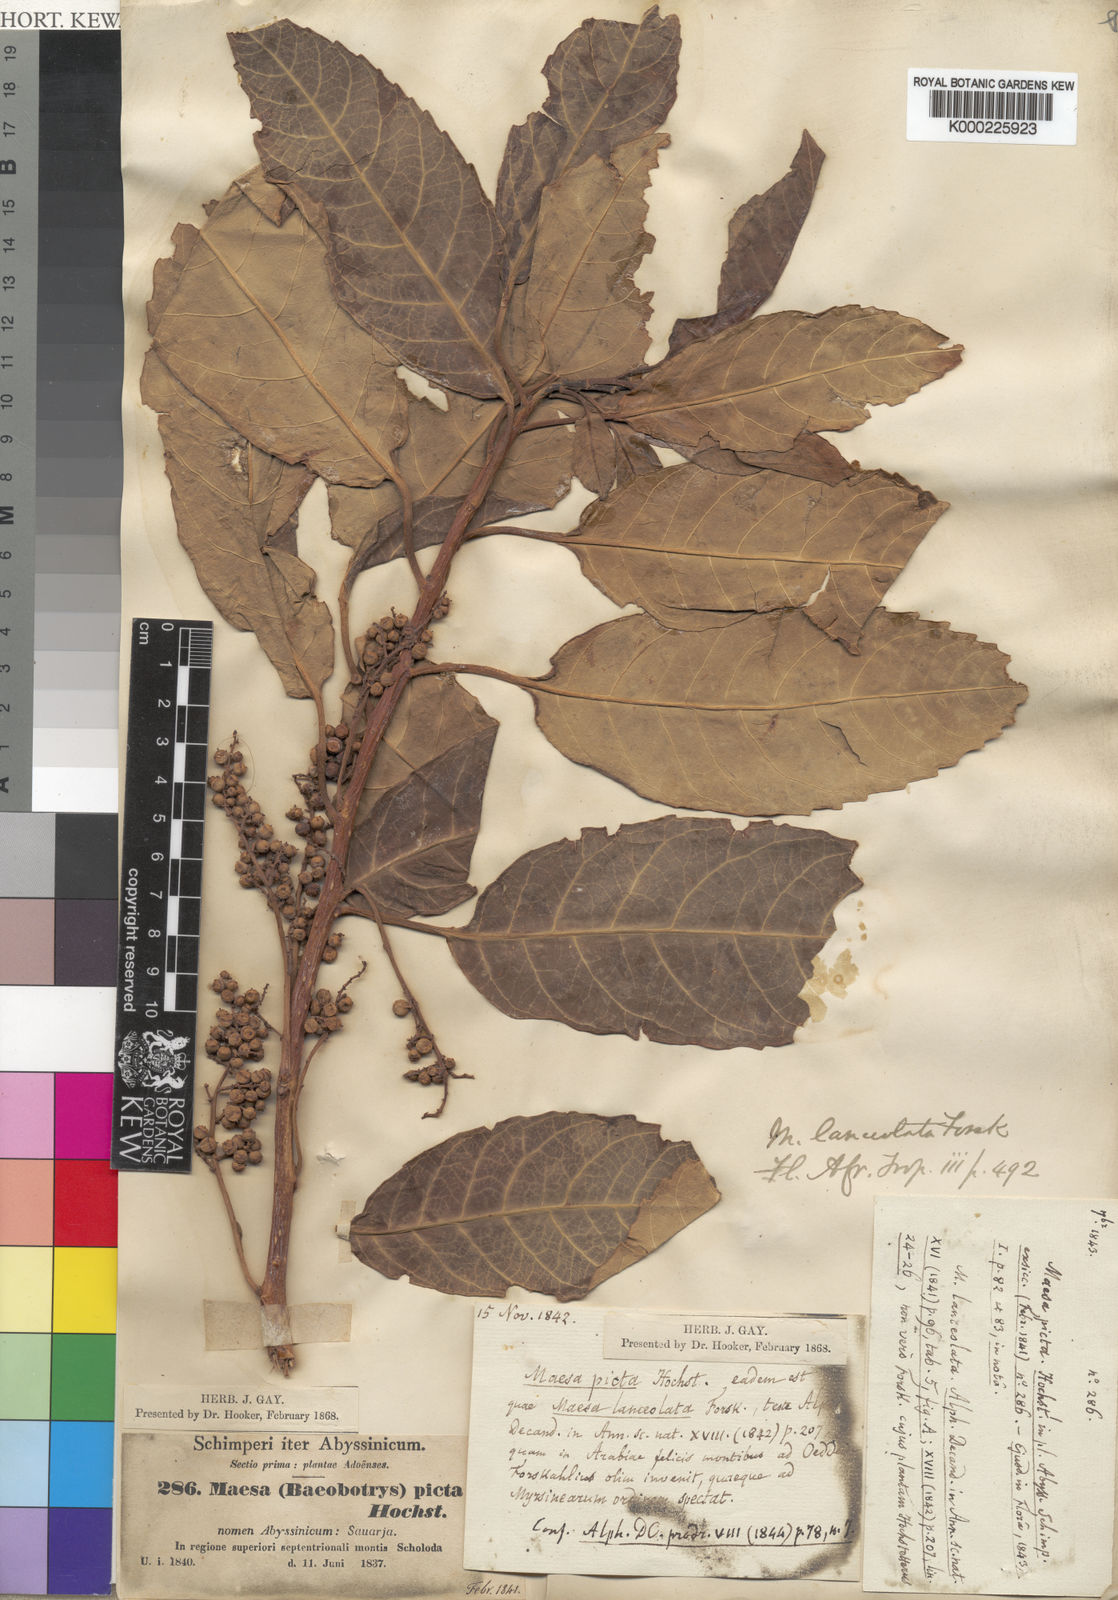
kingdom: Plantae
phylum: Tracheophyta
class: Magnoliopsida
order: Ericales
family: Primulaceae
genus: Maesa
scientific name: Maesa lanceolata
